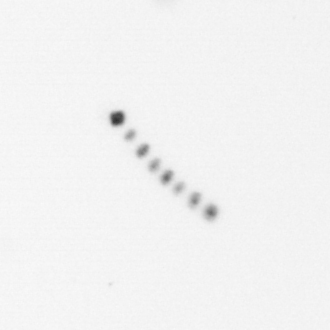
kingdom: Chromista
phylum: Ochrophyta
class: Bacillariophyceae
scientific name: Bacillariophyceae
